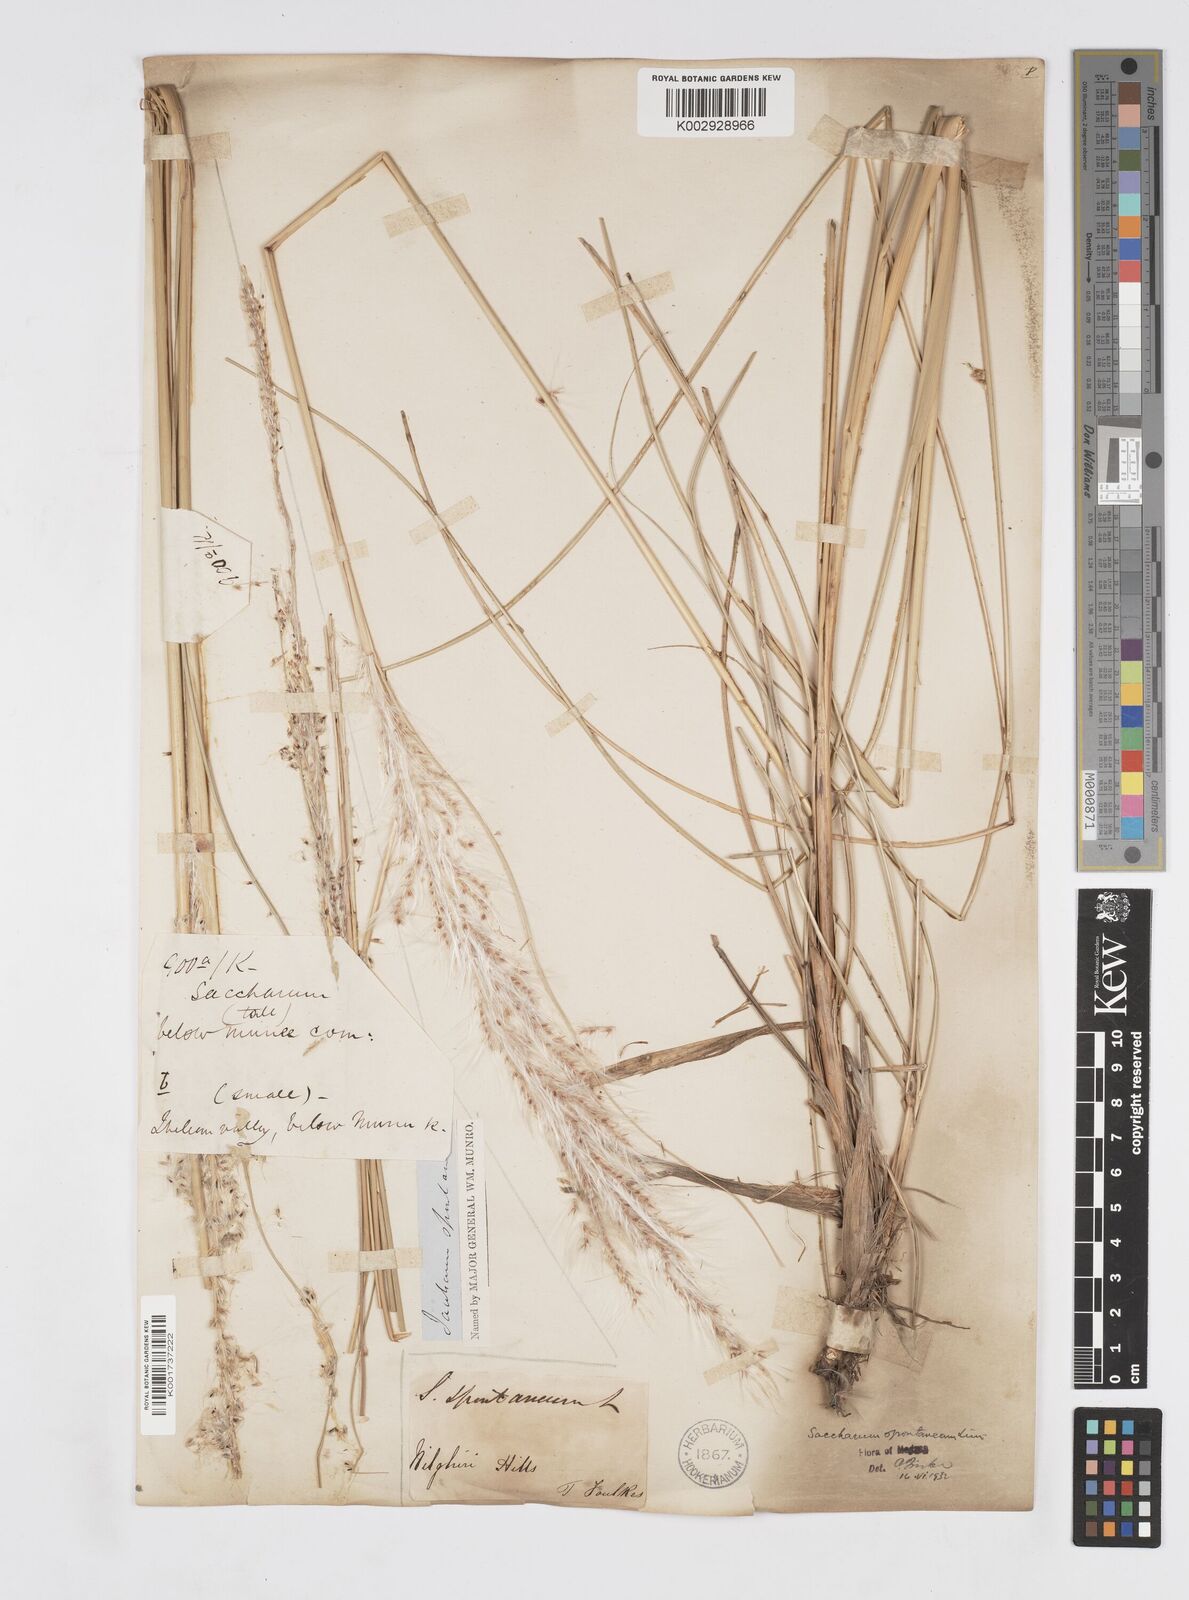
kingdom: Plantae
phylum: Tracheophyta
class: Liliopsida
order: Poales
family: Poaceae
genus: Saccharum
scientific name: Saccharum spontaneum
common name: Wild sugarcane
